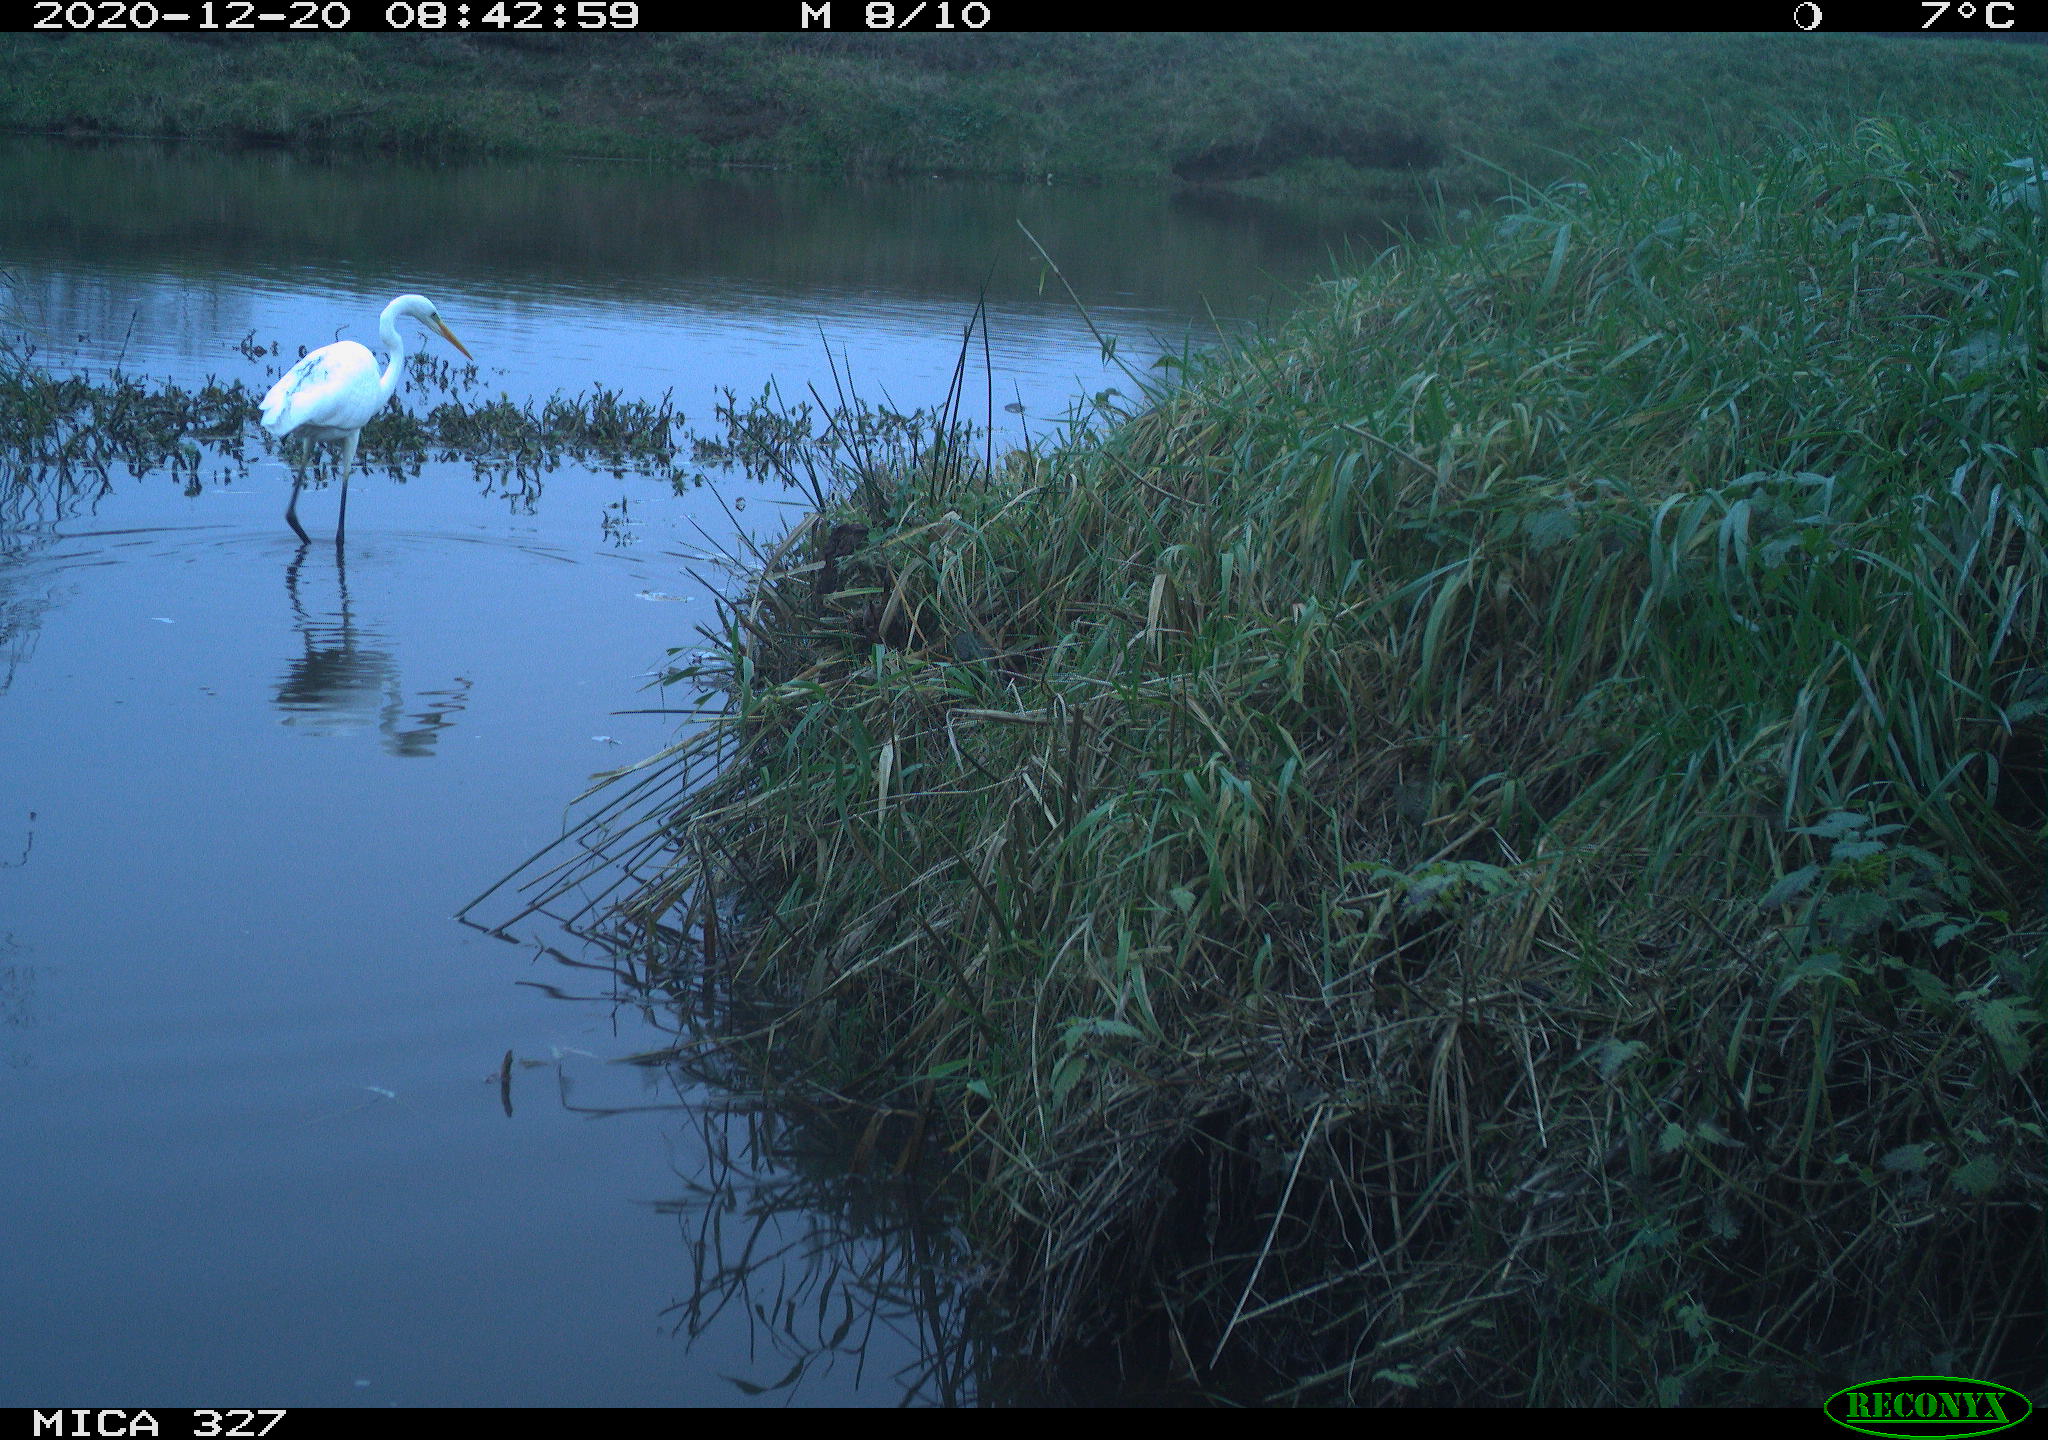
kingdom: Animalia
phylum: Chordata
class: Aves
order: Pelecaniformes
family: Ardeidae
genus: Ardea
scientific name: Ardea alba
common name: Great egret
